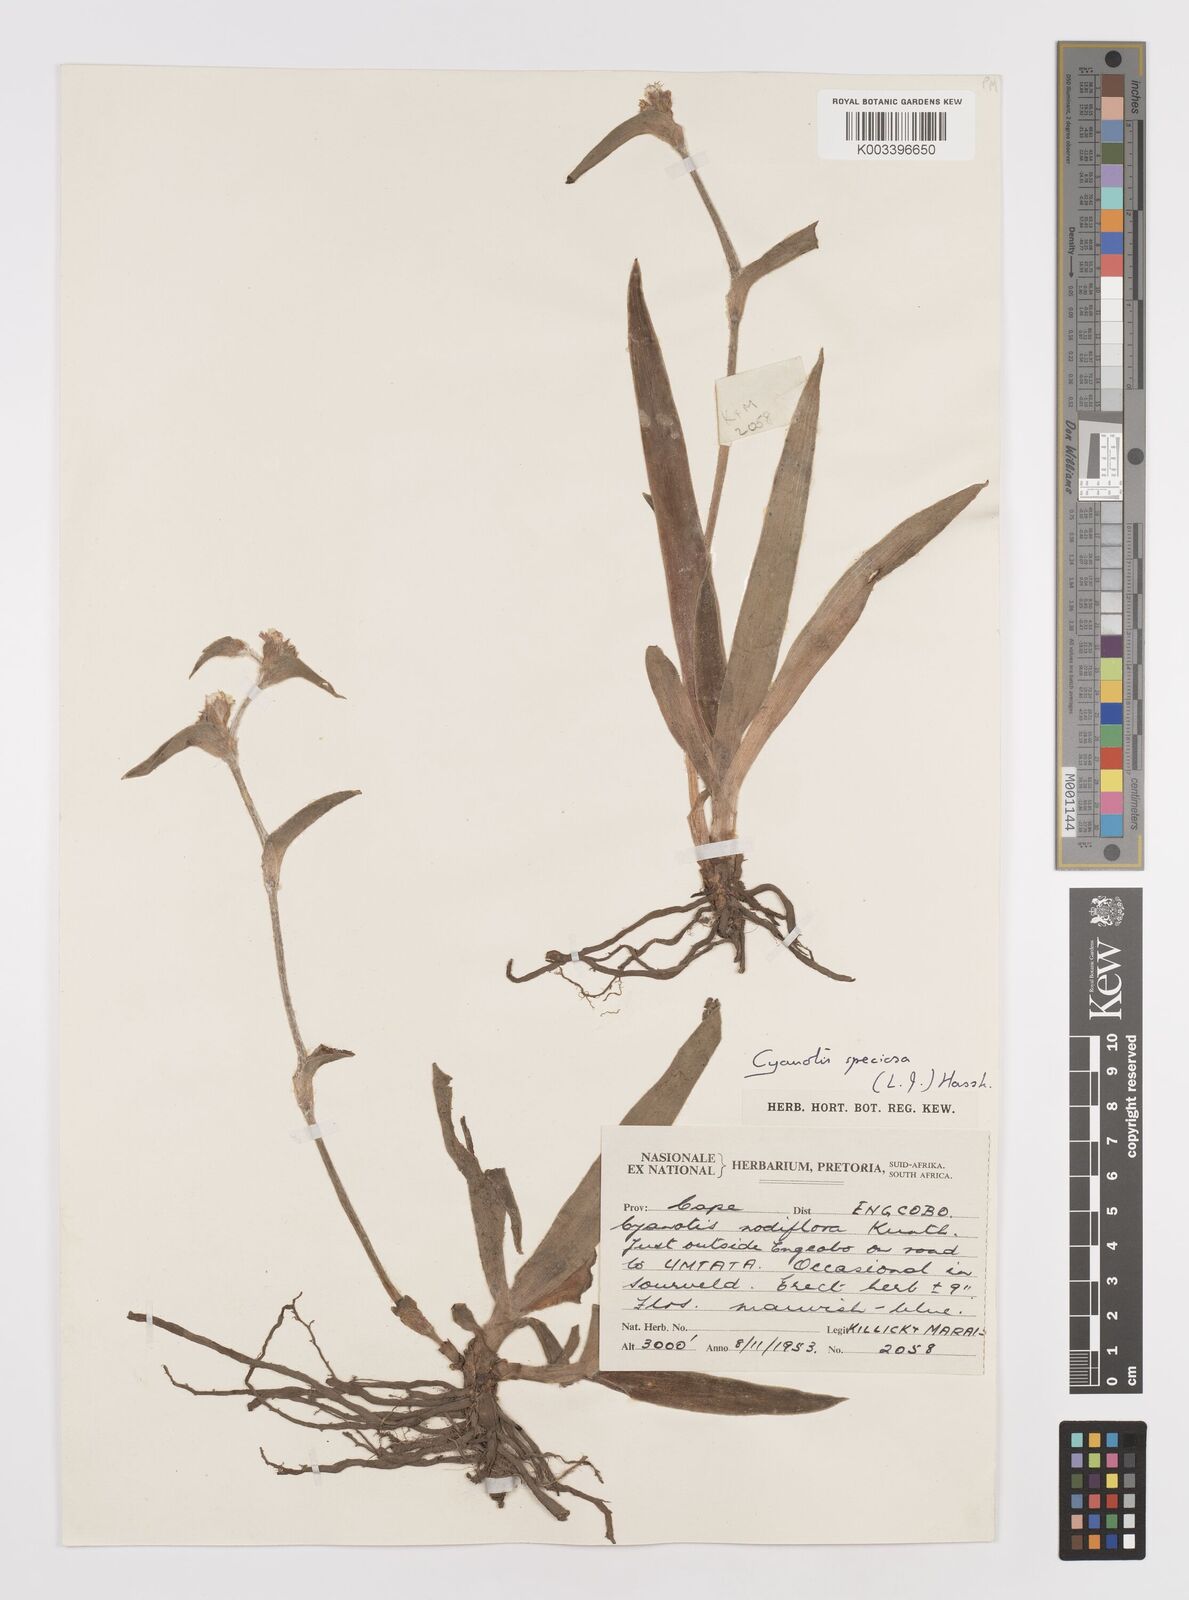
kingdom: Plantae
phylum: Tracheophyta
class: Liliopsida
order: Commelinales
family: Commelinaceae
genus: Cyanotis
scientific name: Cyanotis speciosa
